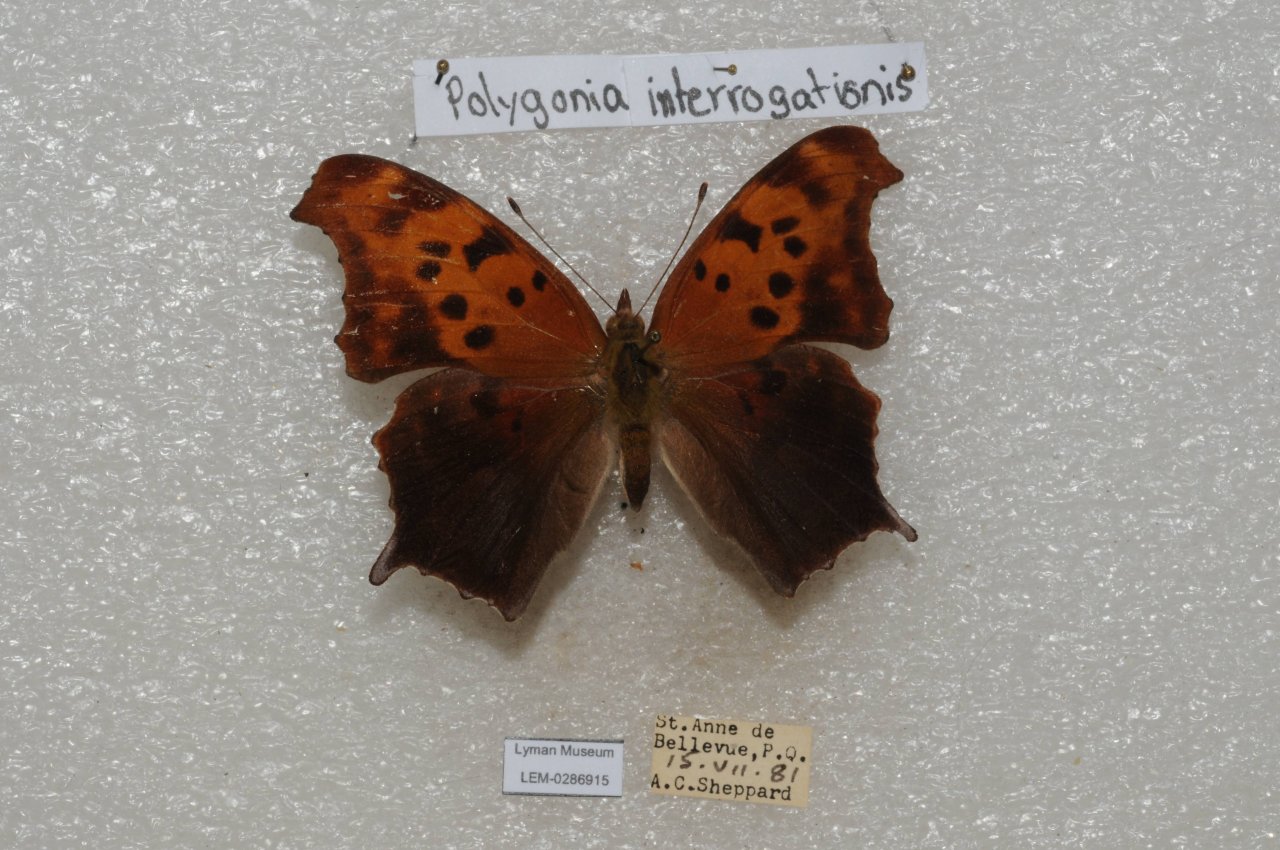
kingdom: Animalia
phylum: Arthropoda
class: Insecta
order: Lepidoptera
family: Nymphalidae
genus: Polygonia
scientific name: Polygonia interrogationis
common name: Question Mark
